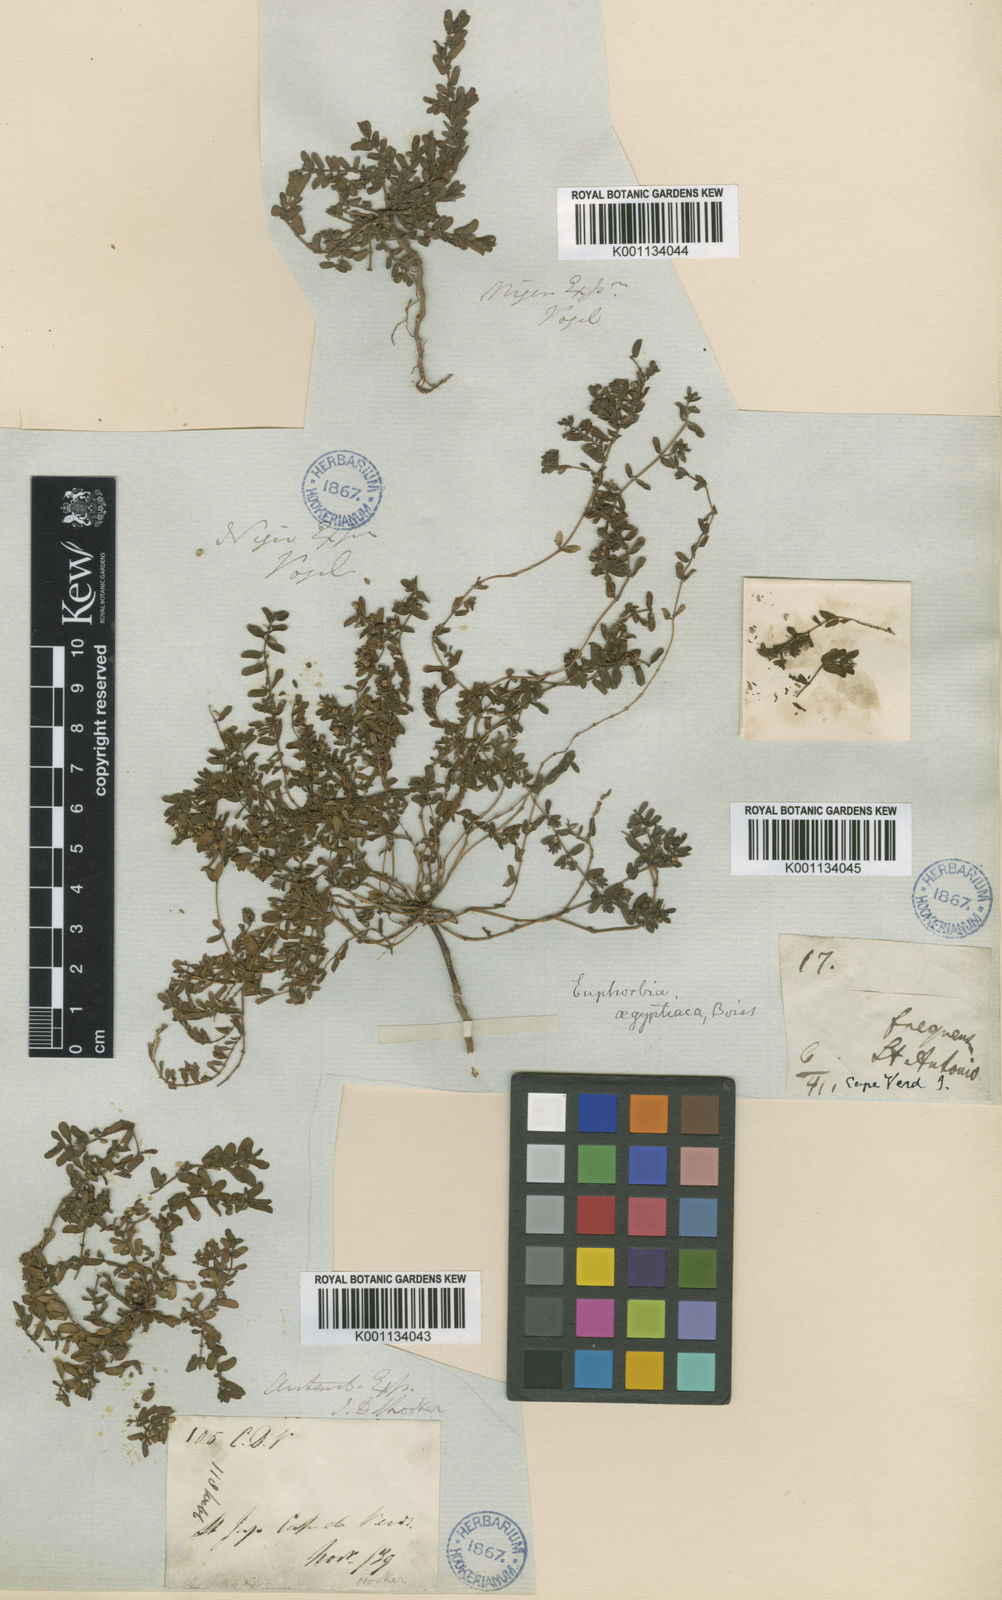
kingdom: Plantae
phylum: Tracheophyta
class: Magnoliopsida
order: Malpighiales
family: Euphorbiaceae
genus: Euphorbia
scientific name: Euphorbia
